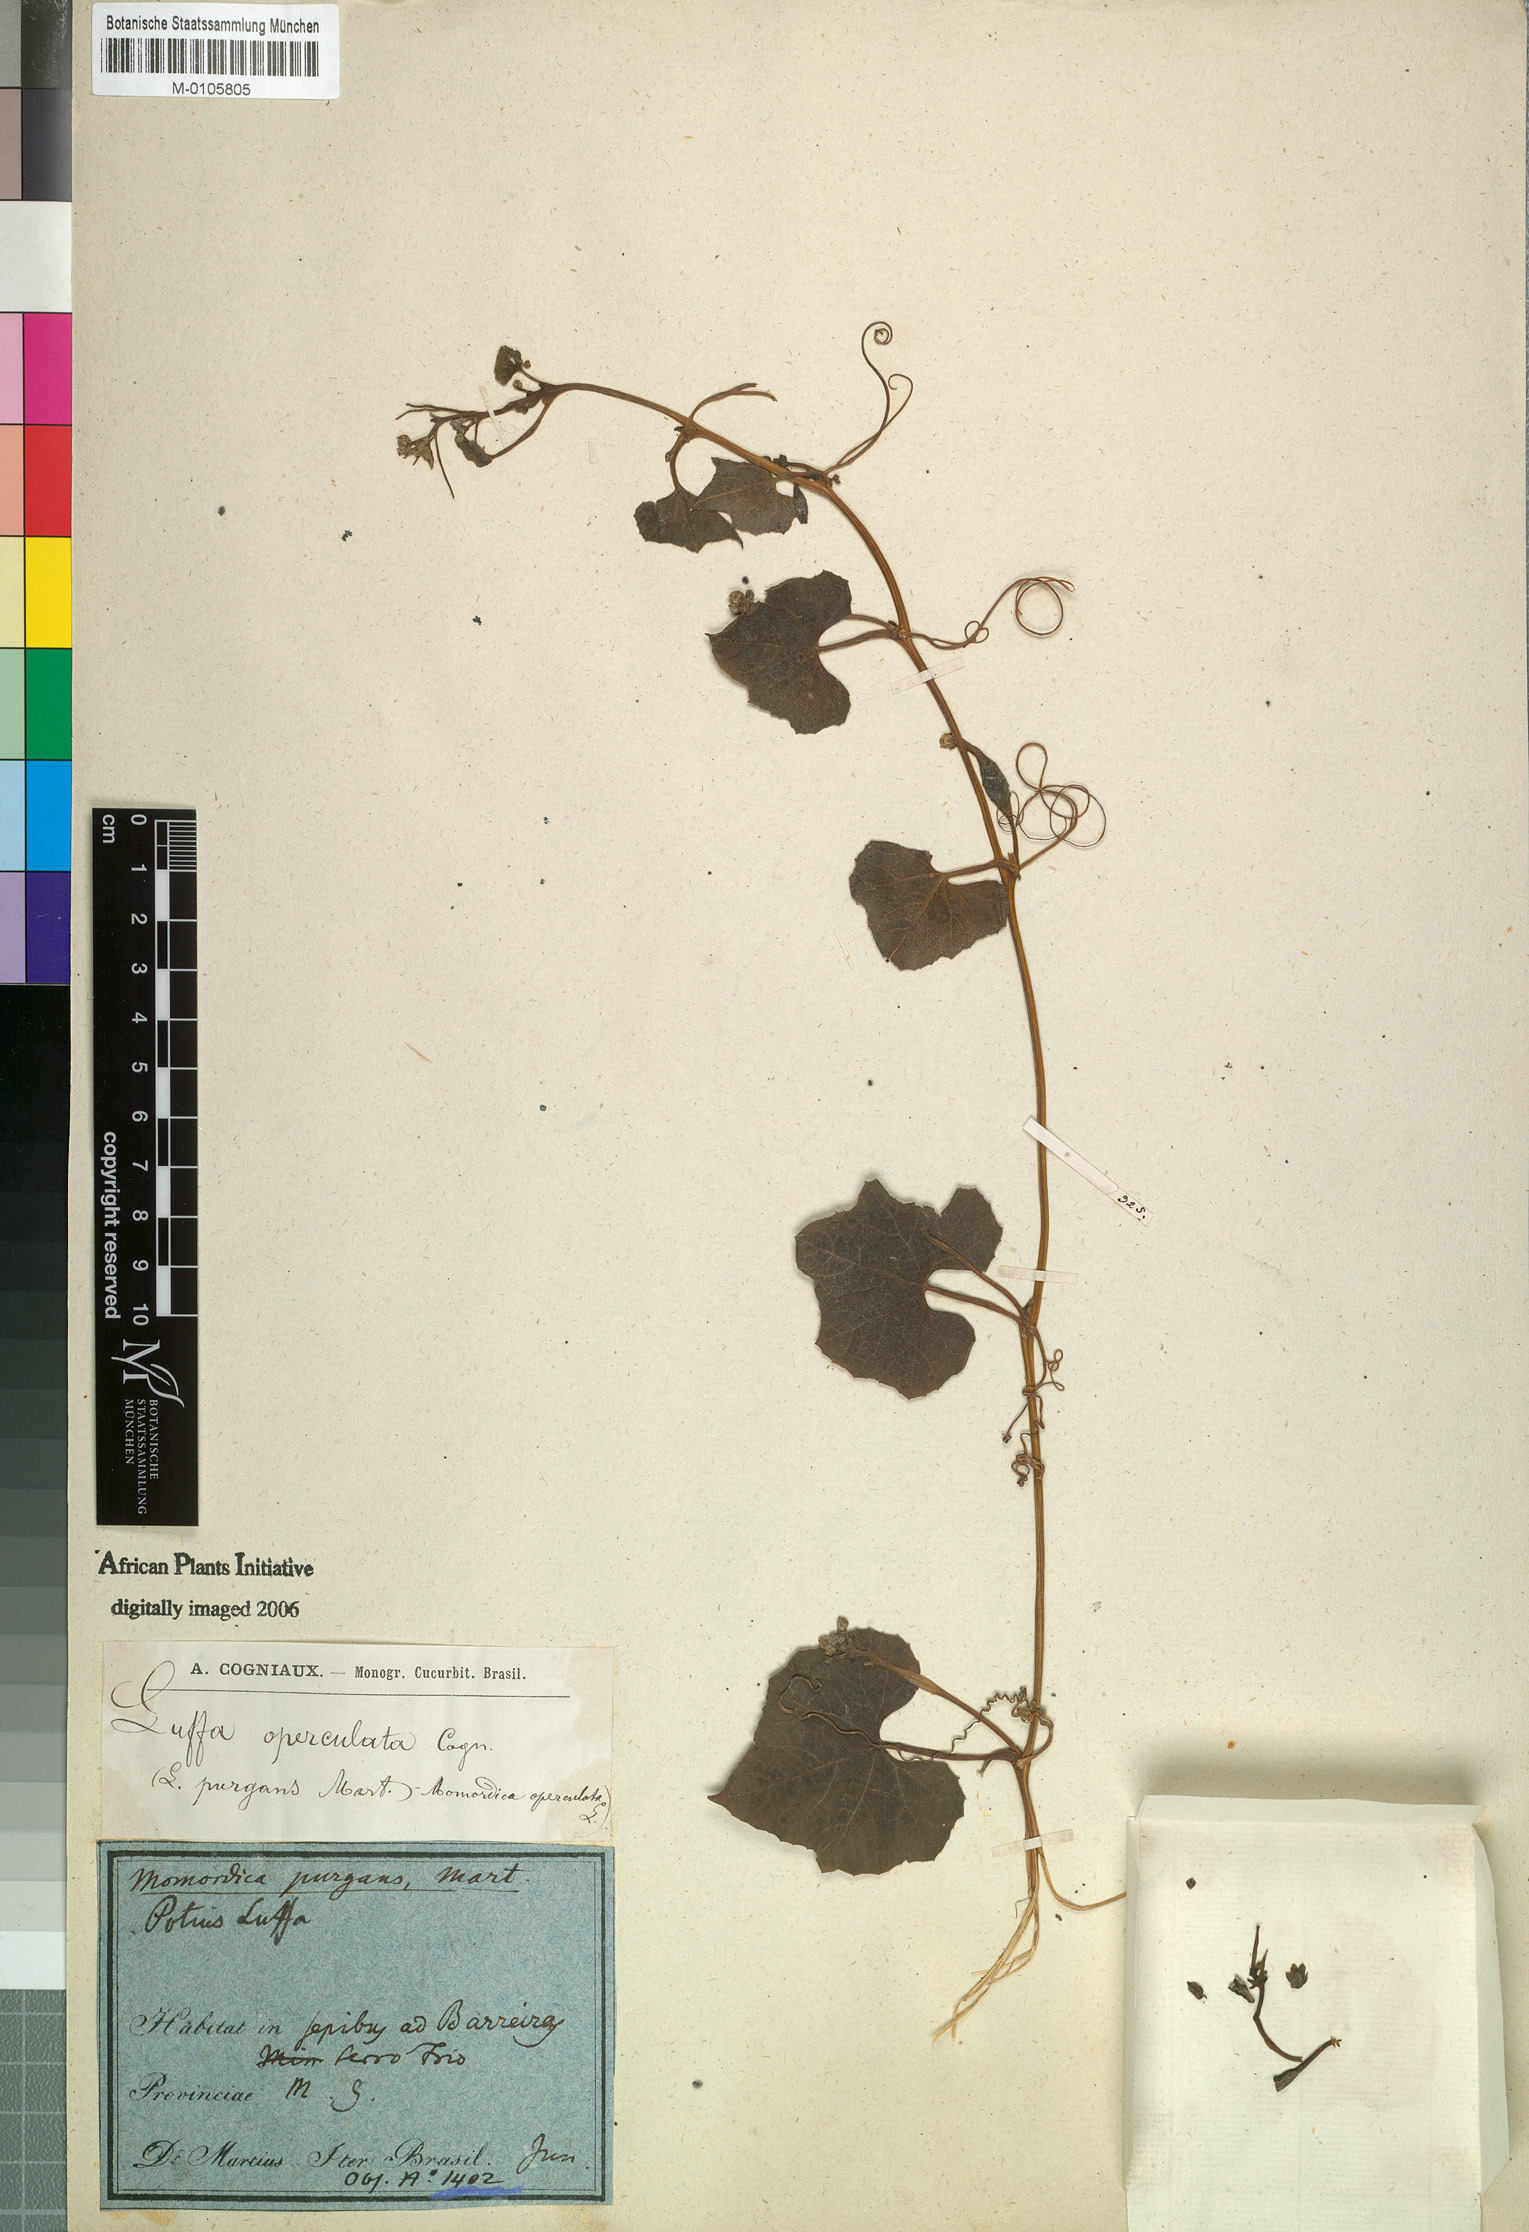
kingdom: Plantae
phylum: Tracheophyta
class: Magnoliopsida
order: Cucurbitales
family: Cucurbitaceae
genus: Luffa
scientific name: Luffa operculata
